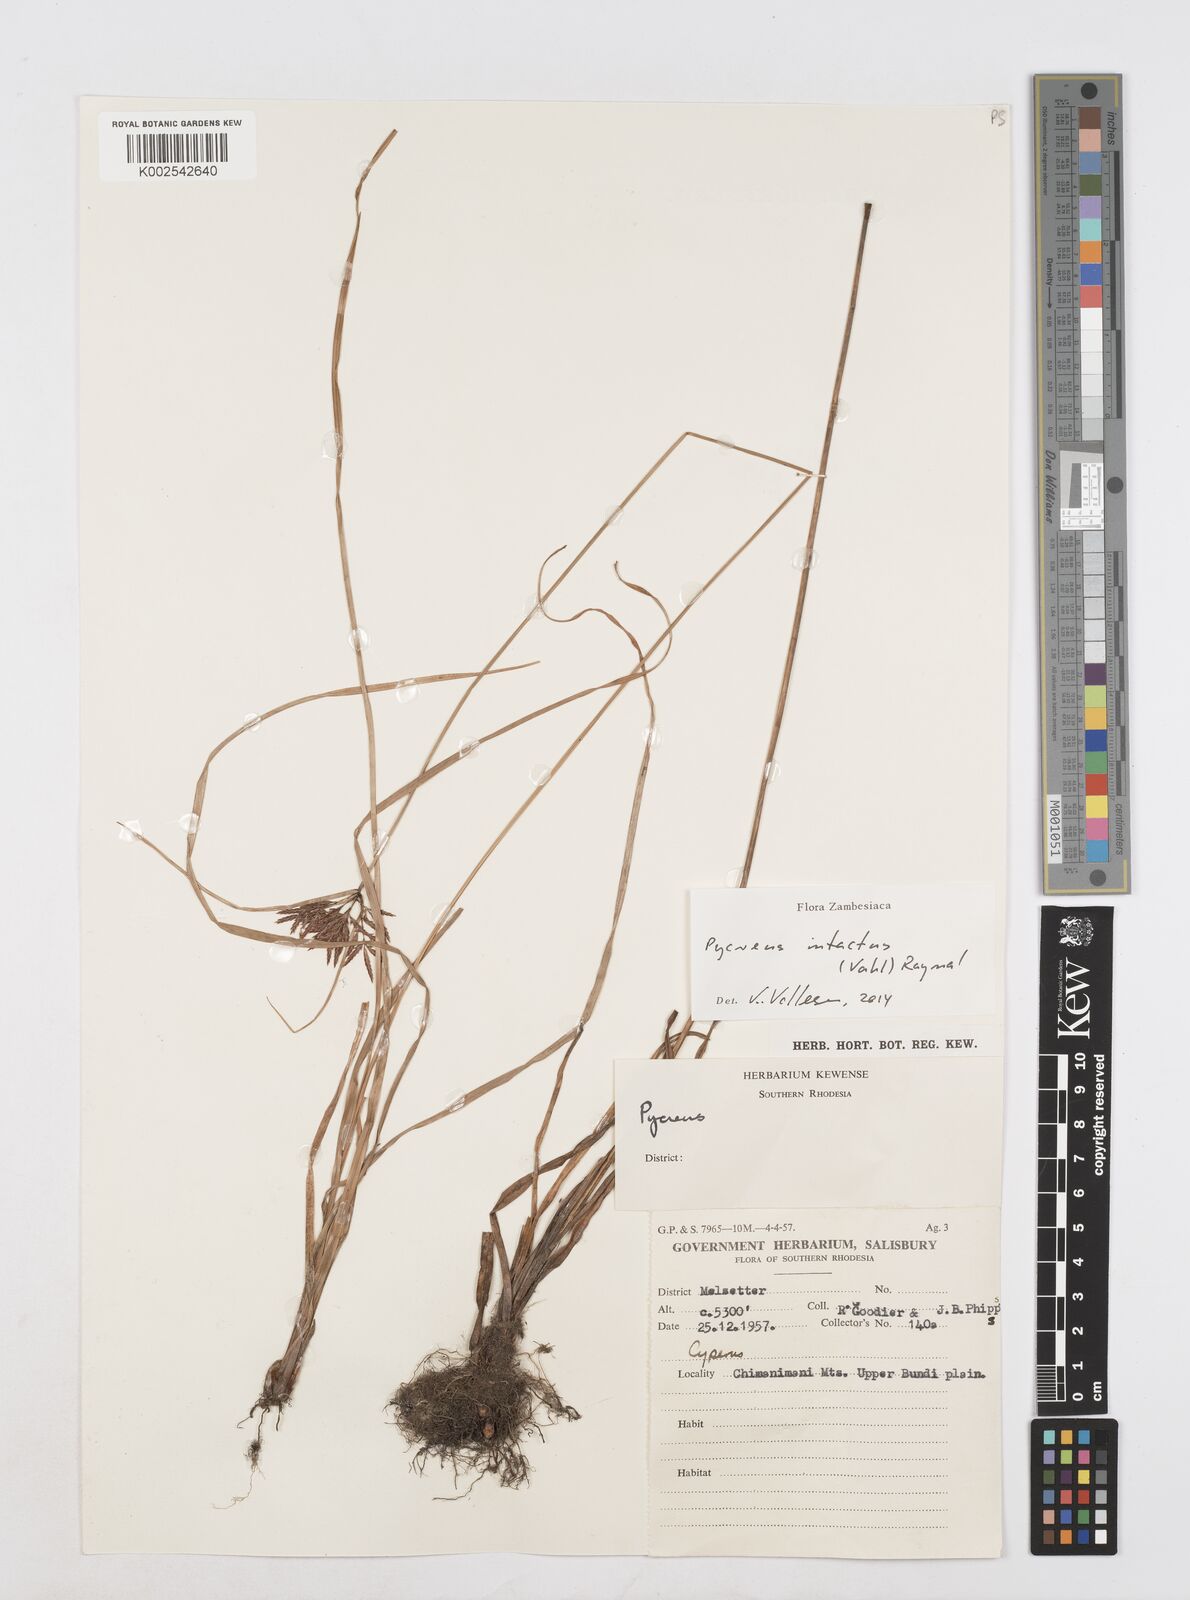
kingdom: Plantae
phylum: Tracheophyta
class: Liliopsida
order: Poales
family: Cyperaceae
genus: Cyperus
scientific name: Cyperus intactus
